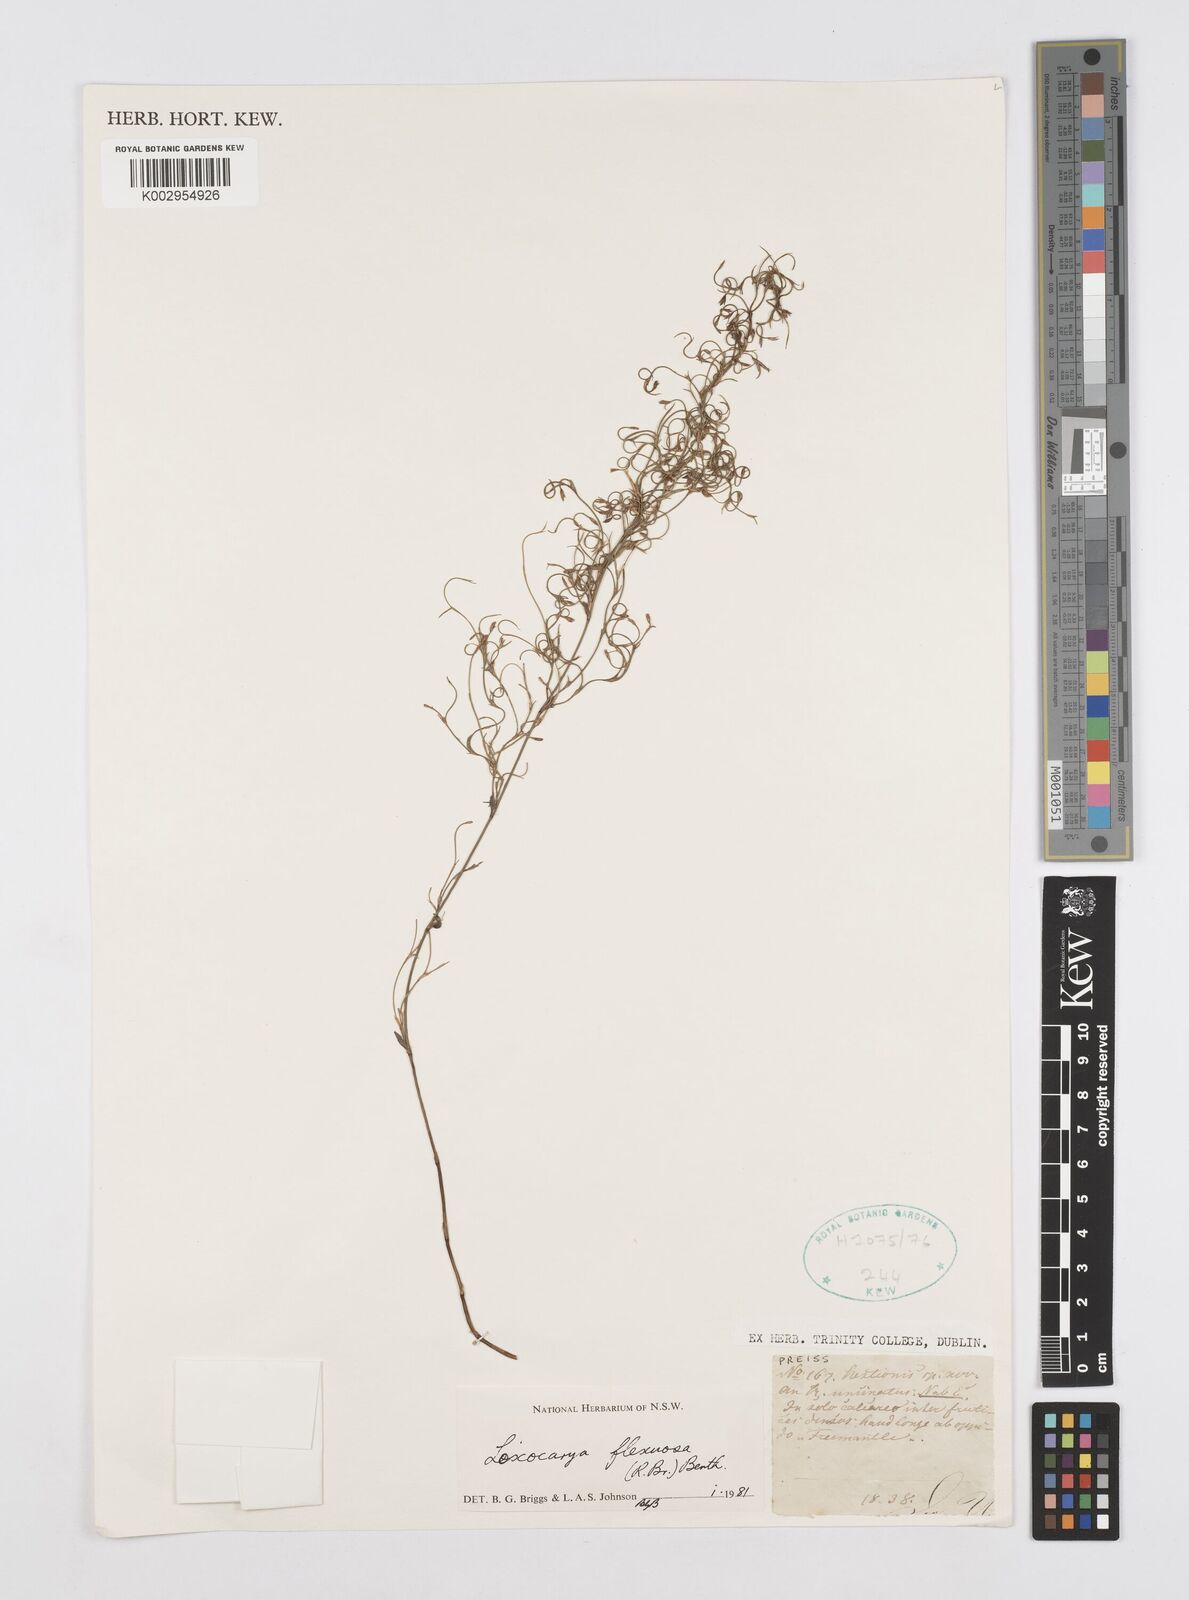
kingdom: Plantae
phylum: Tracheophyta
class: Liliopsida
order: Poales
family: Restionaceae
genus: Desmocladus
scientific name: Desmocladus flexuosus
